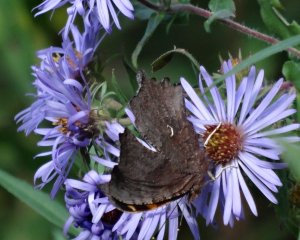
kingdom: Animalia
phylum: Arthropoda
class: Insecta
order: Lepidoptera
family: Nymphalidae
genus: Polygonia
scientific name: Polygonia comma
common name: Eastern Comma
